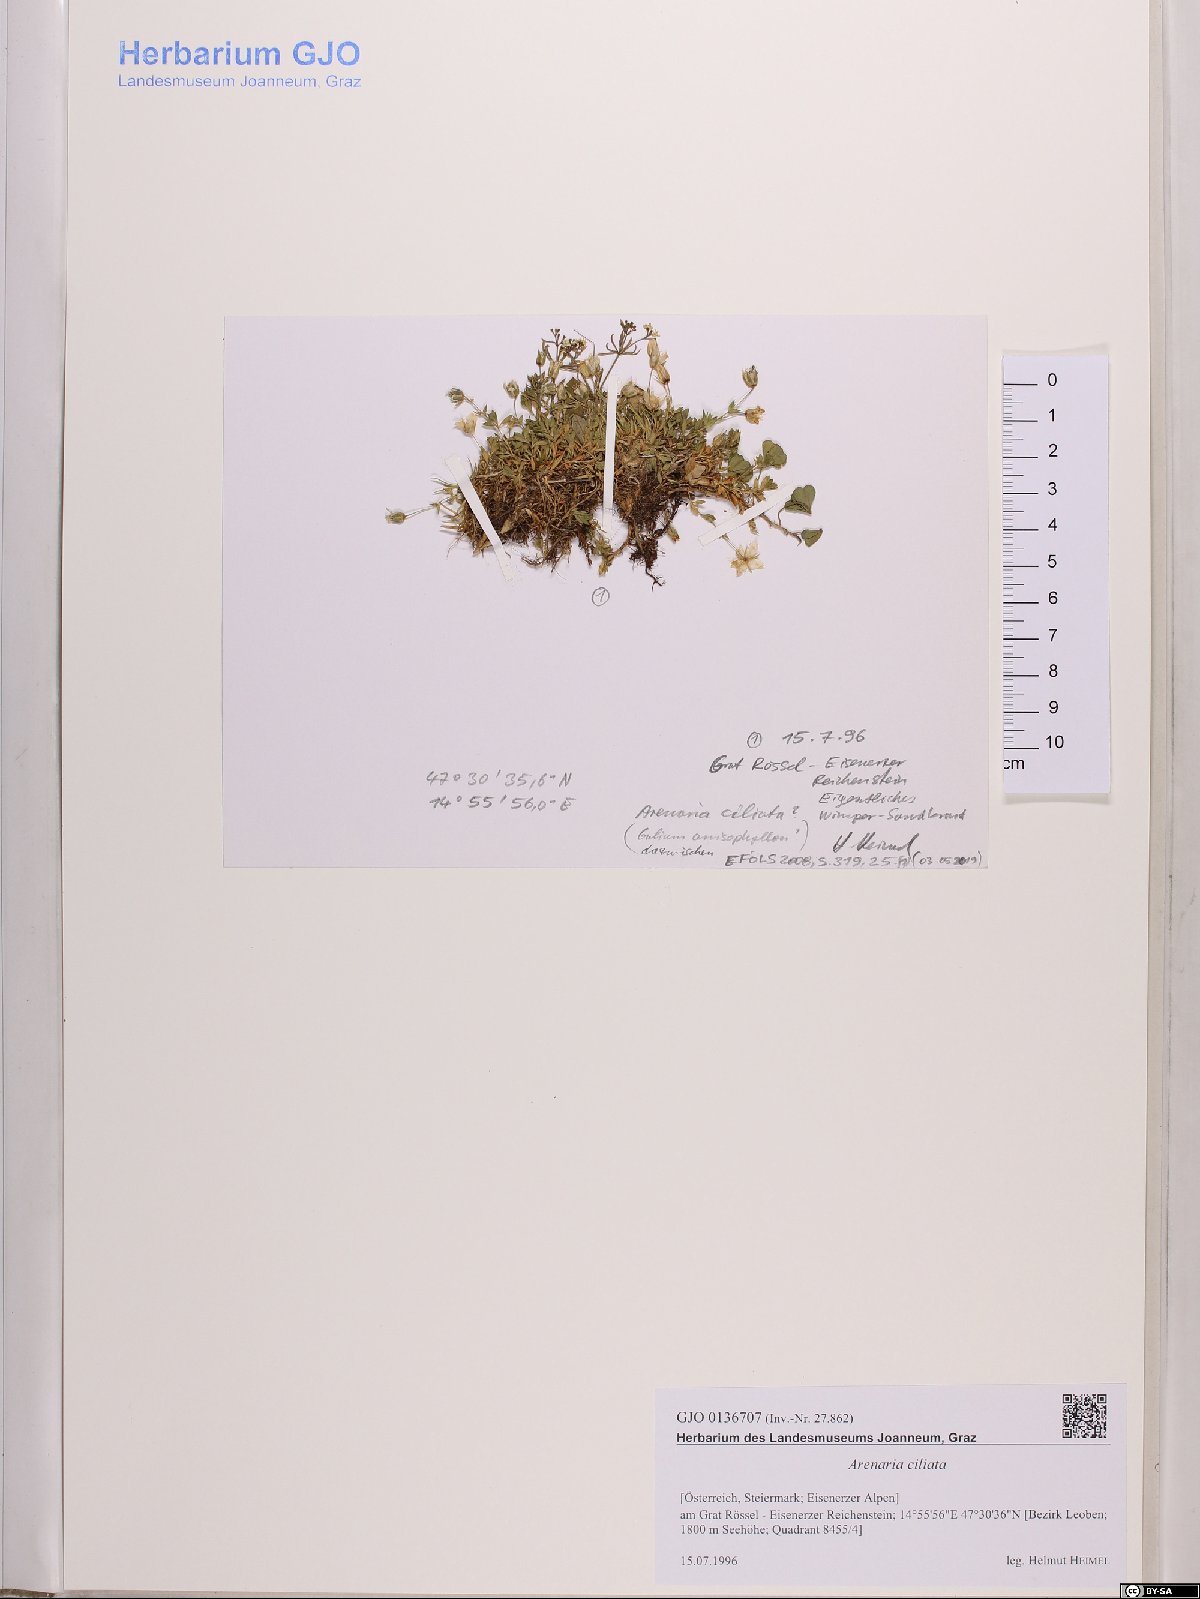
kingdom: Plantae
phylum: Tracheophyta
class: Magnoliopsida
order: Caryophyllales
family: Caryophyllaceae
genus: Arenaria
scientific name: Arenaria ciliata
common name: Fringed sandwort
